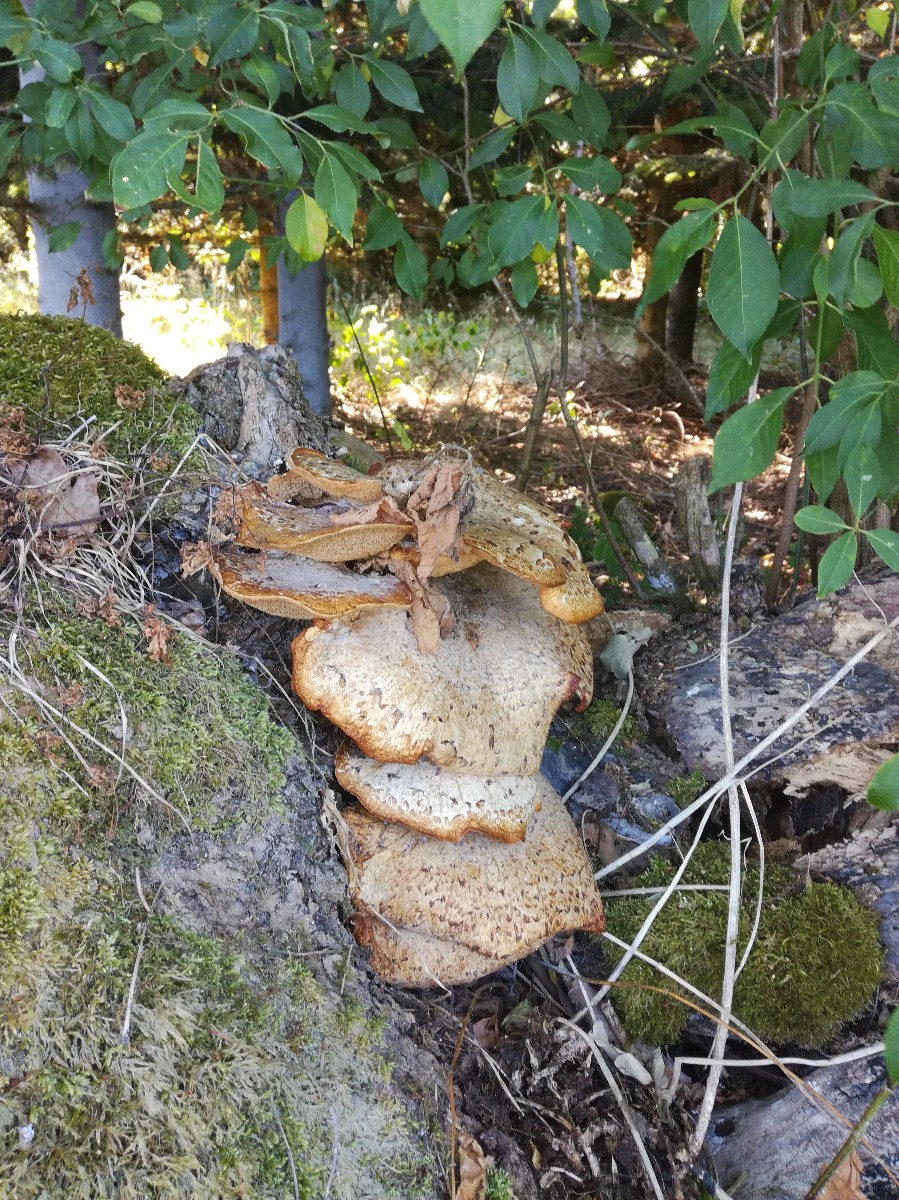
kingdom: Fungi
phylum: Basidiomycota
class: Agaricomycetes
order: Polyporales
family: Polyporaceae
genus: Cerioporus
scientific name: Cerioporus squamosus
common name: skællet stilkporesvamp
